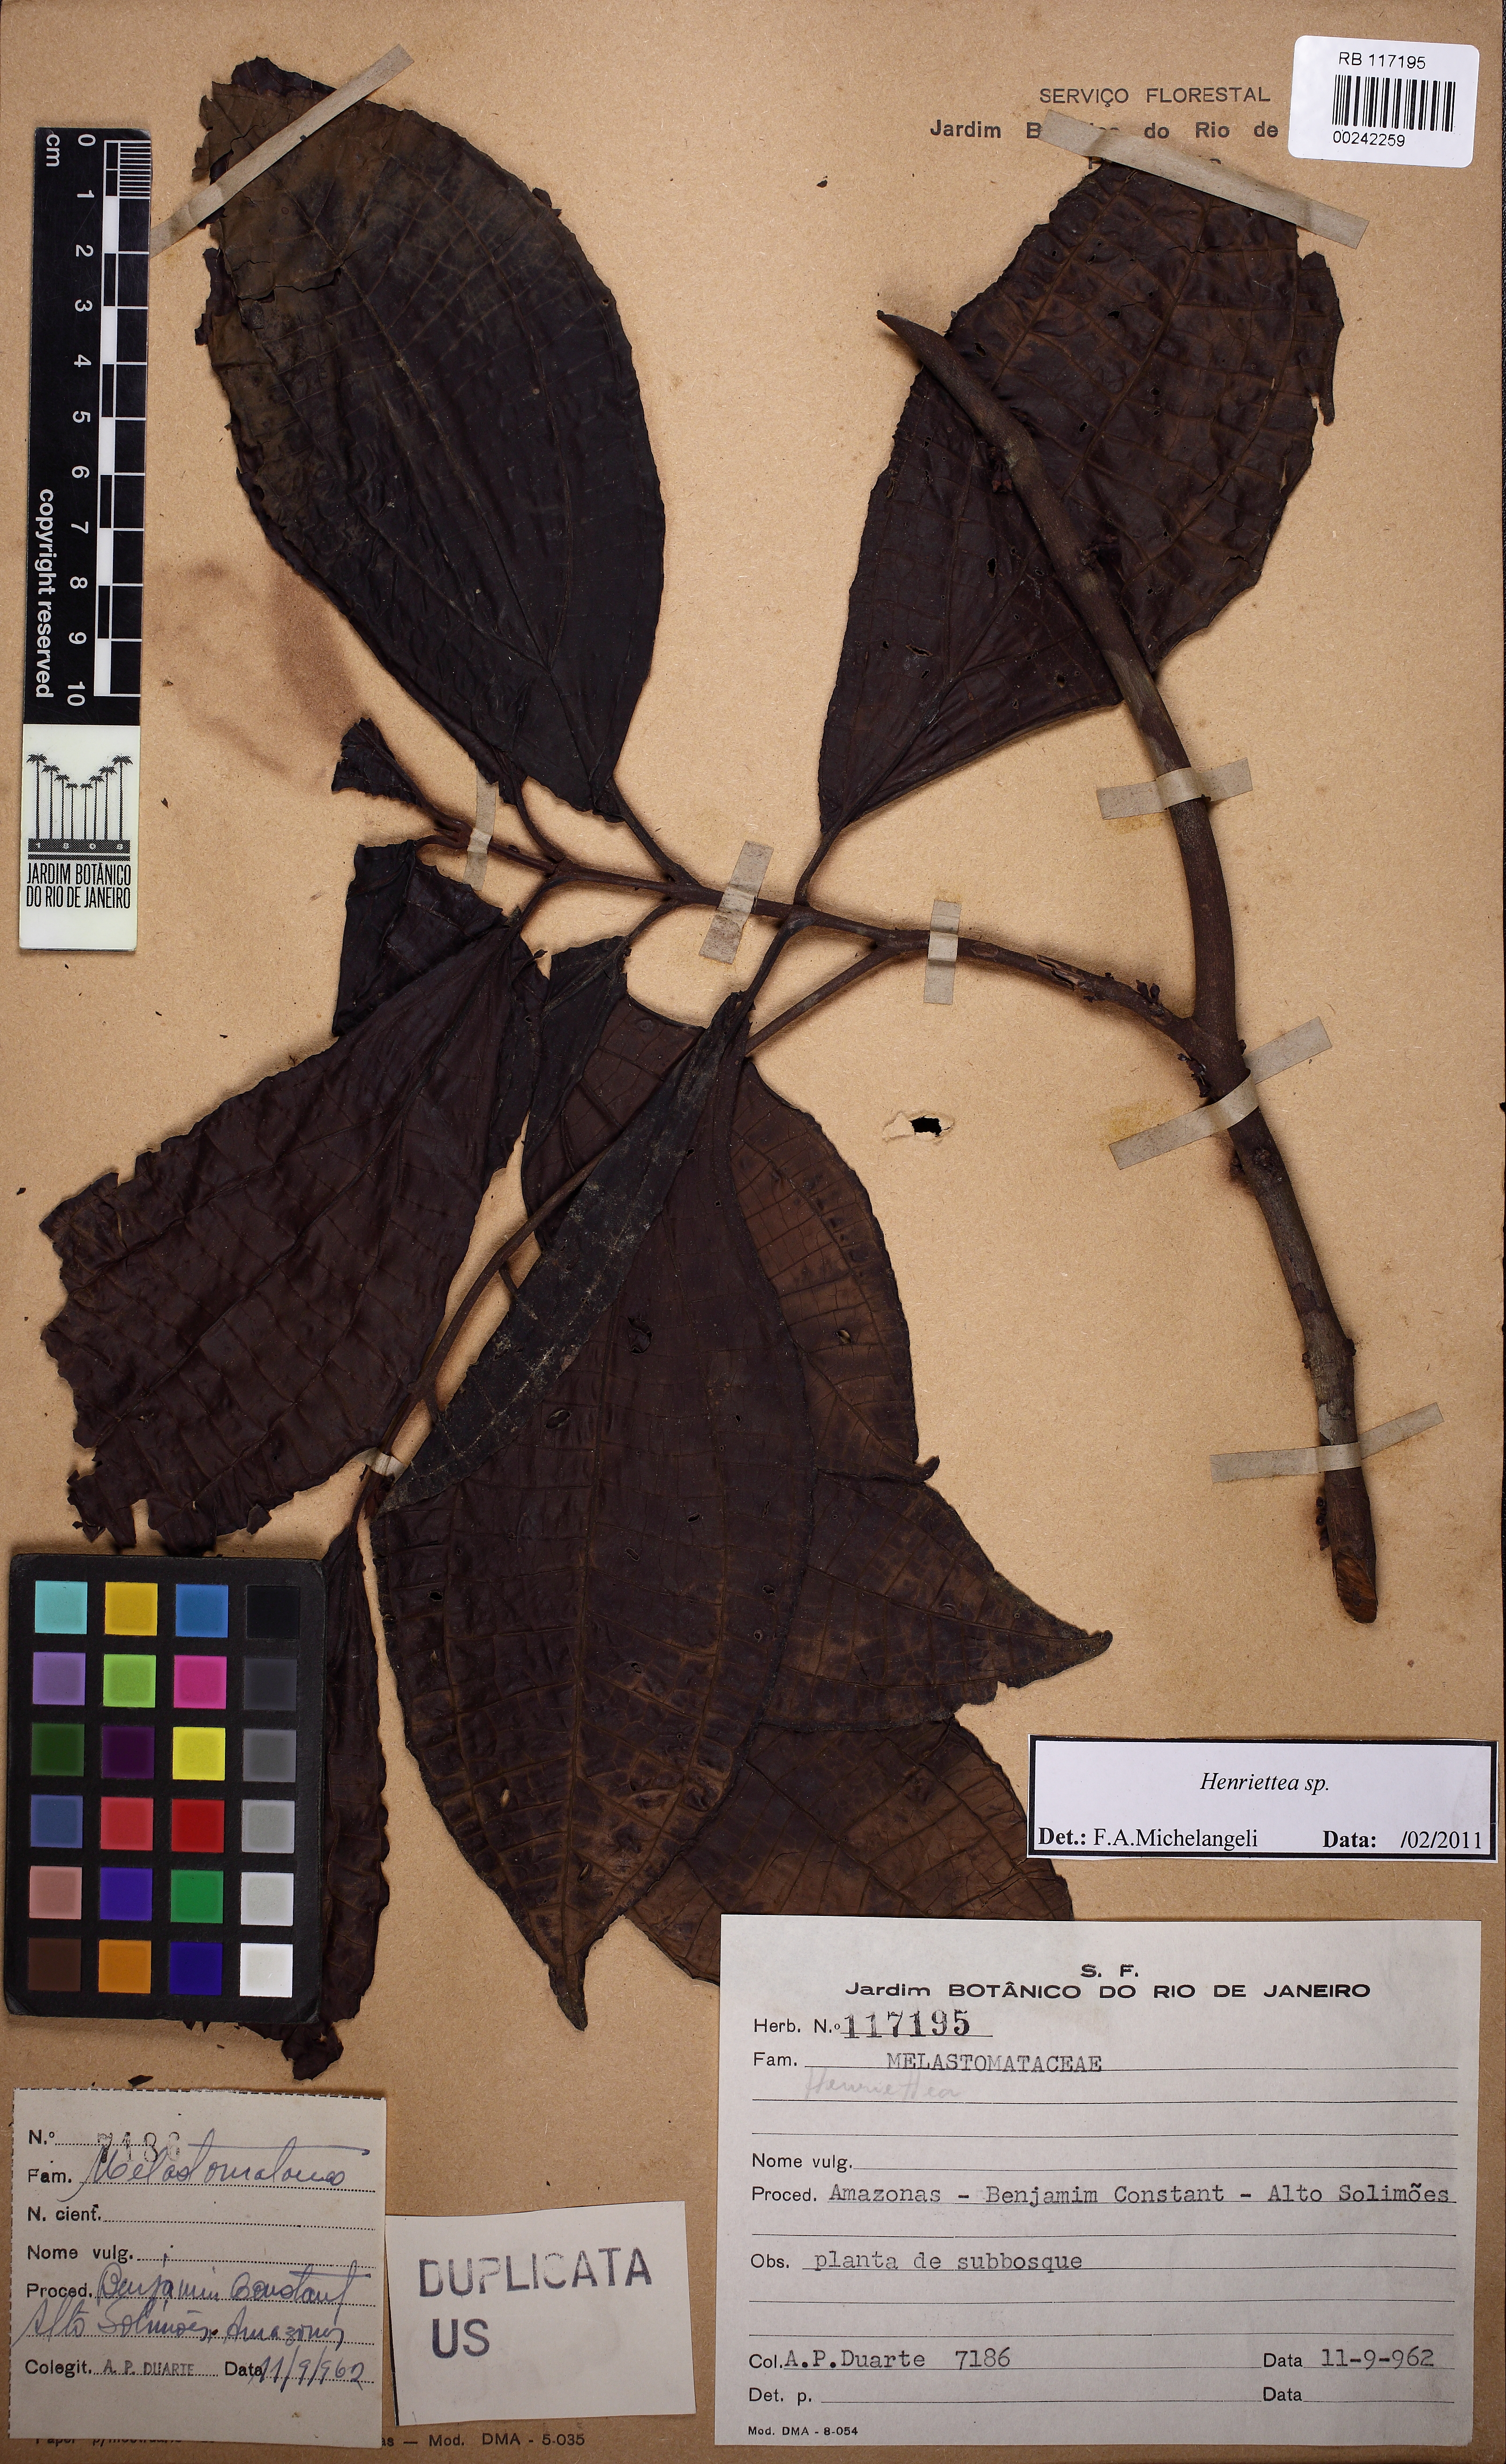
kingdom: Plantae
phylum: Tracheophyta
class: Magnoliopsida
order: Myrtales
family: Melastomataceae
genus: Henriettea
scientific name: Henriettea caudata
